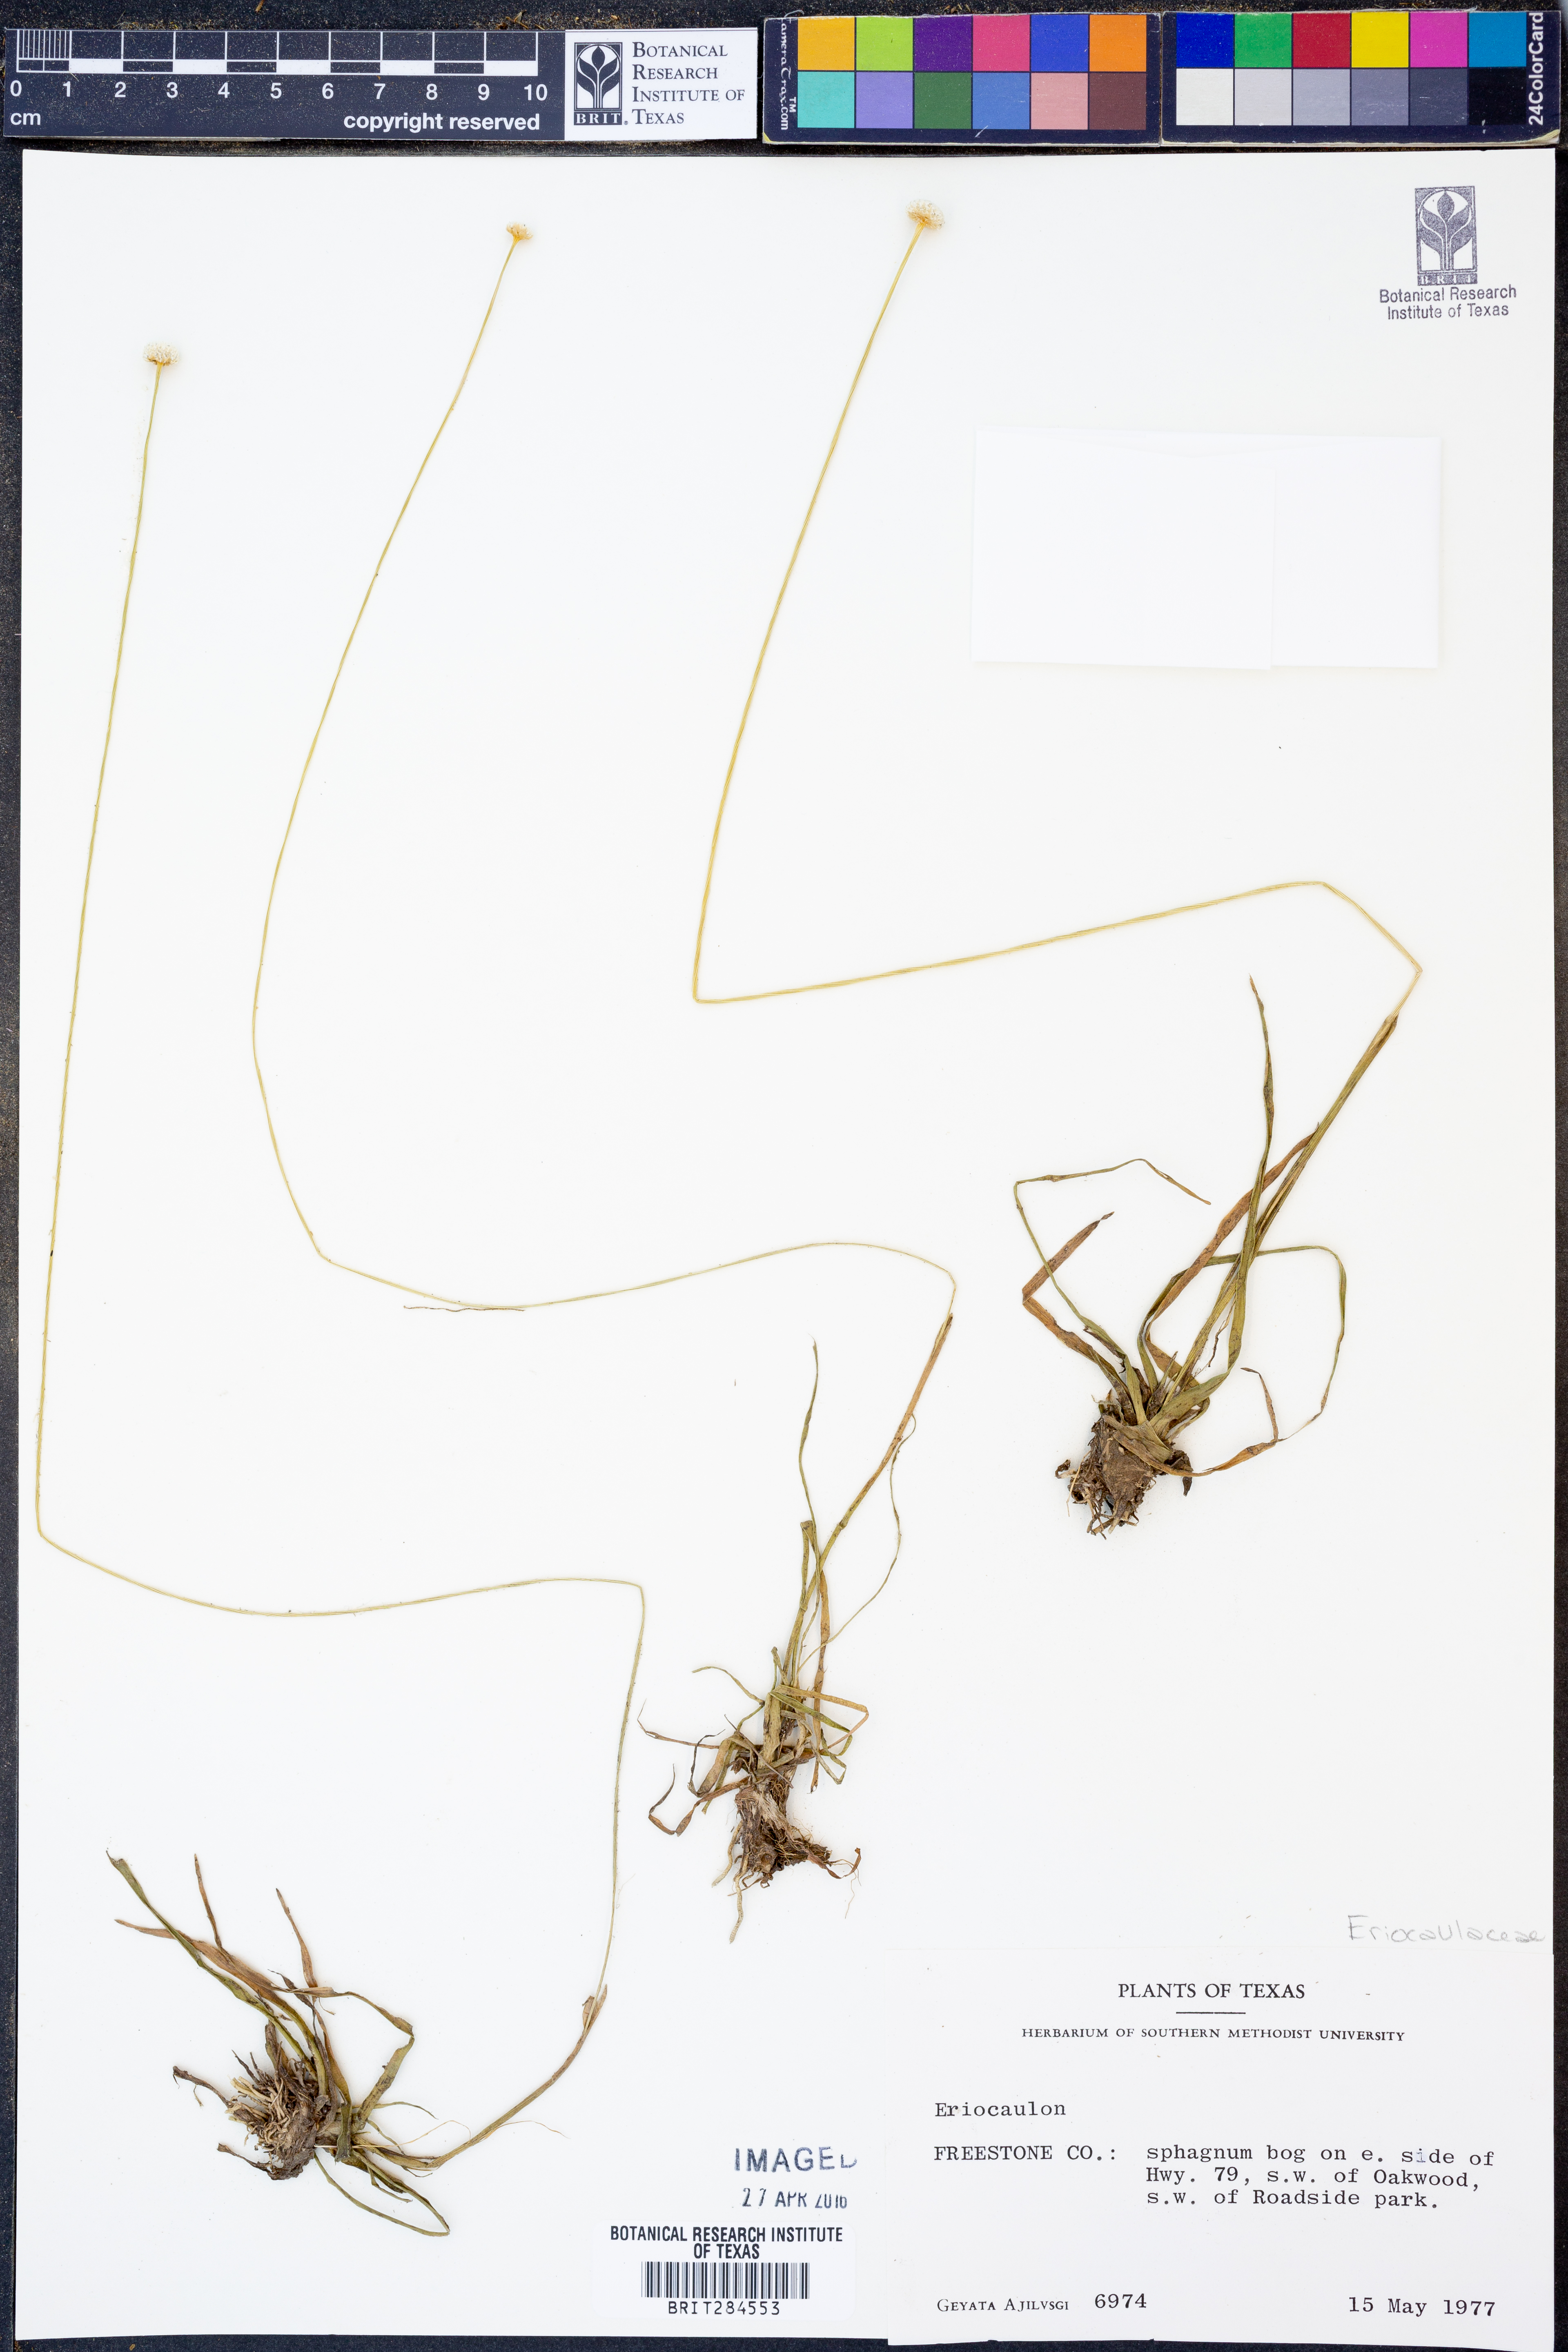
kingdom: Plantae
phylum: Tracheophyta
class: Liliopsida
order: Poales
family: Eriocaulaceae
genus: Eriocaulon
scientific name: Eriocaulon
